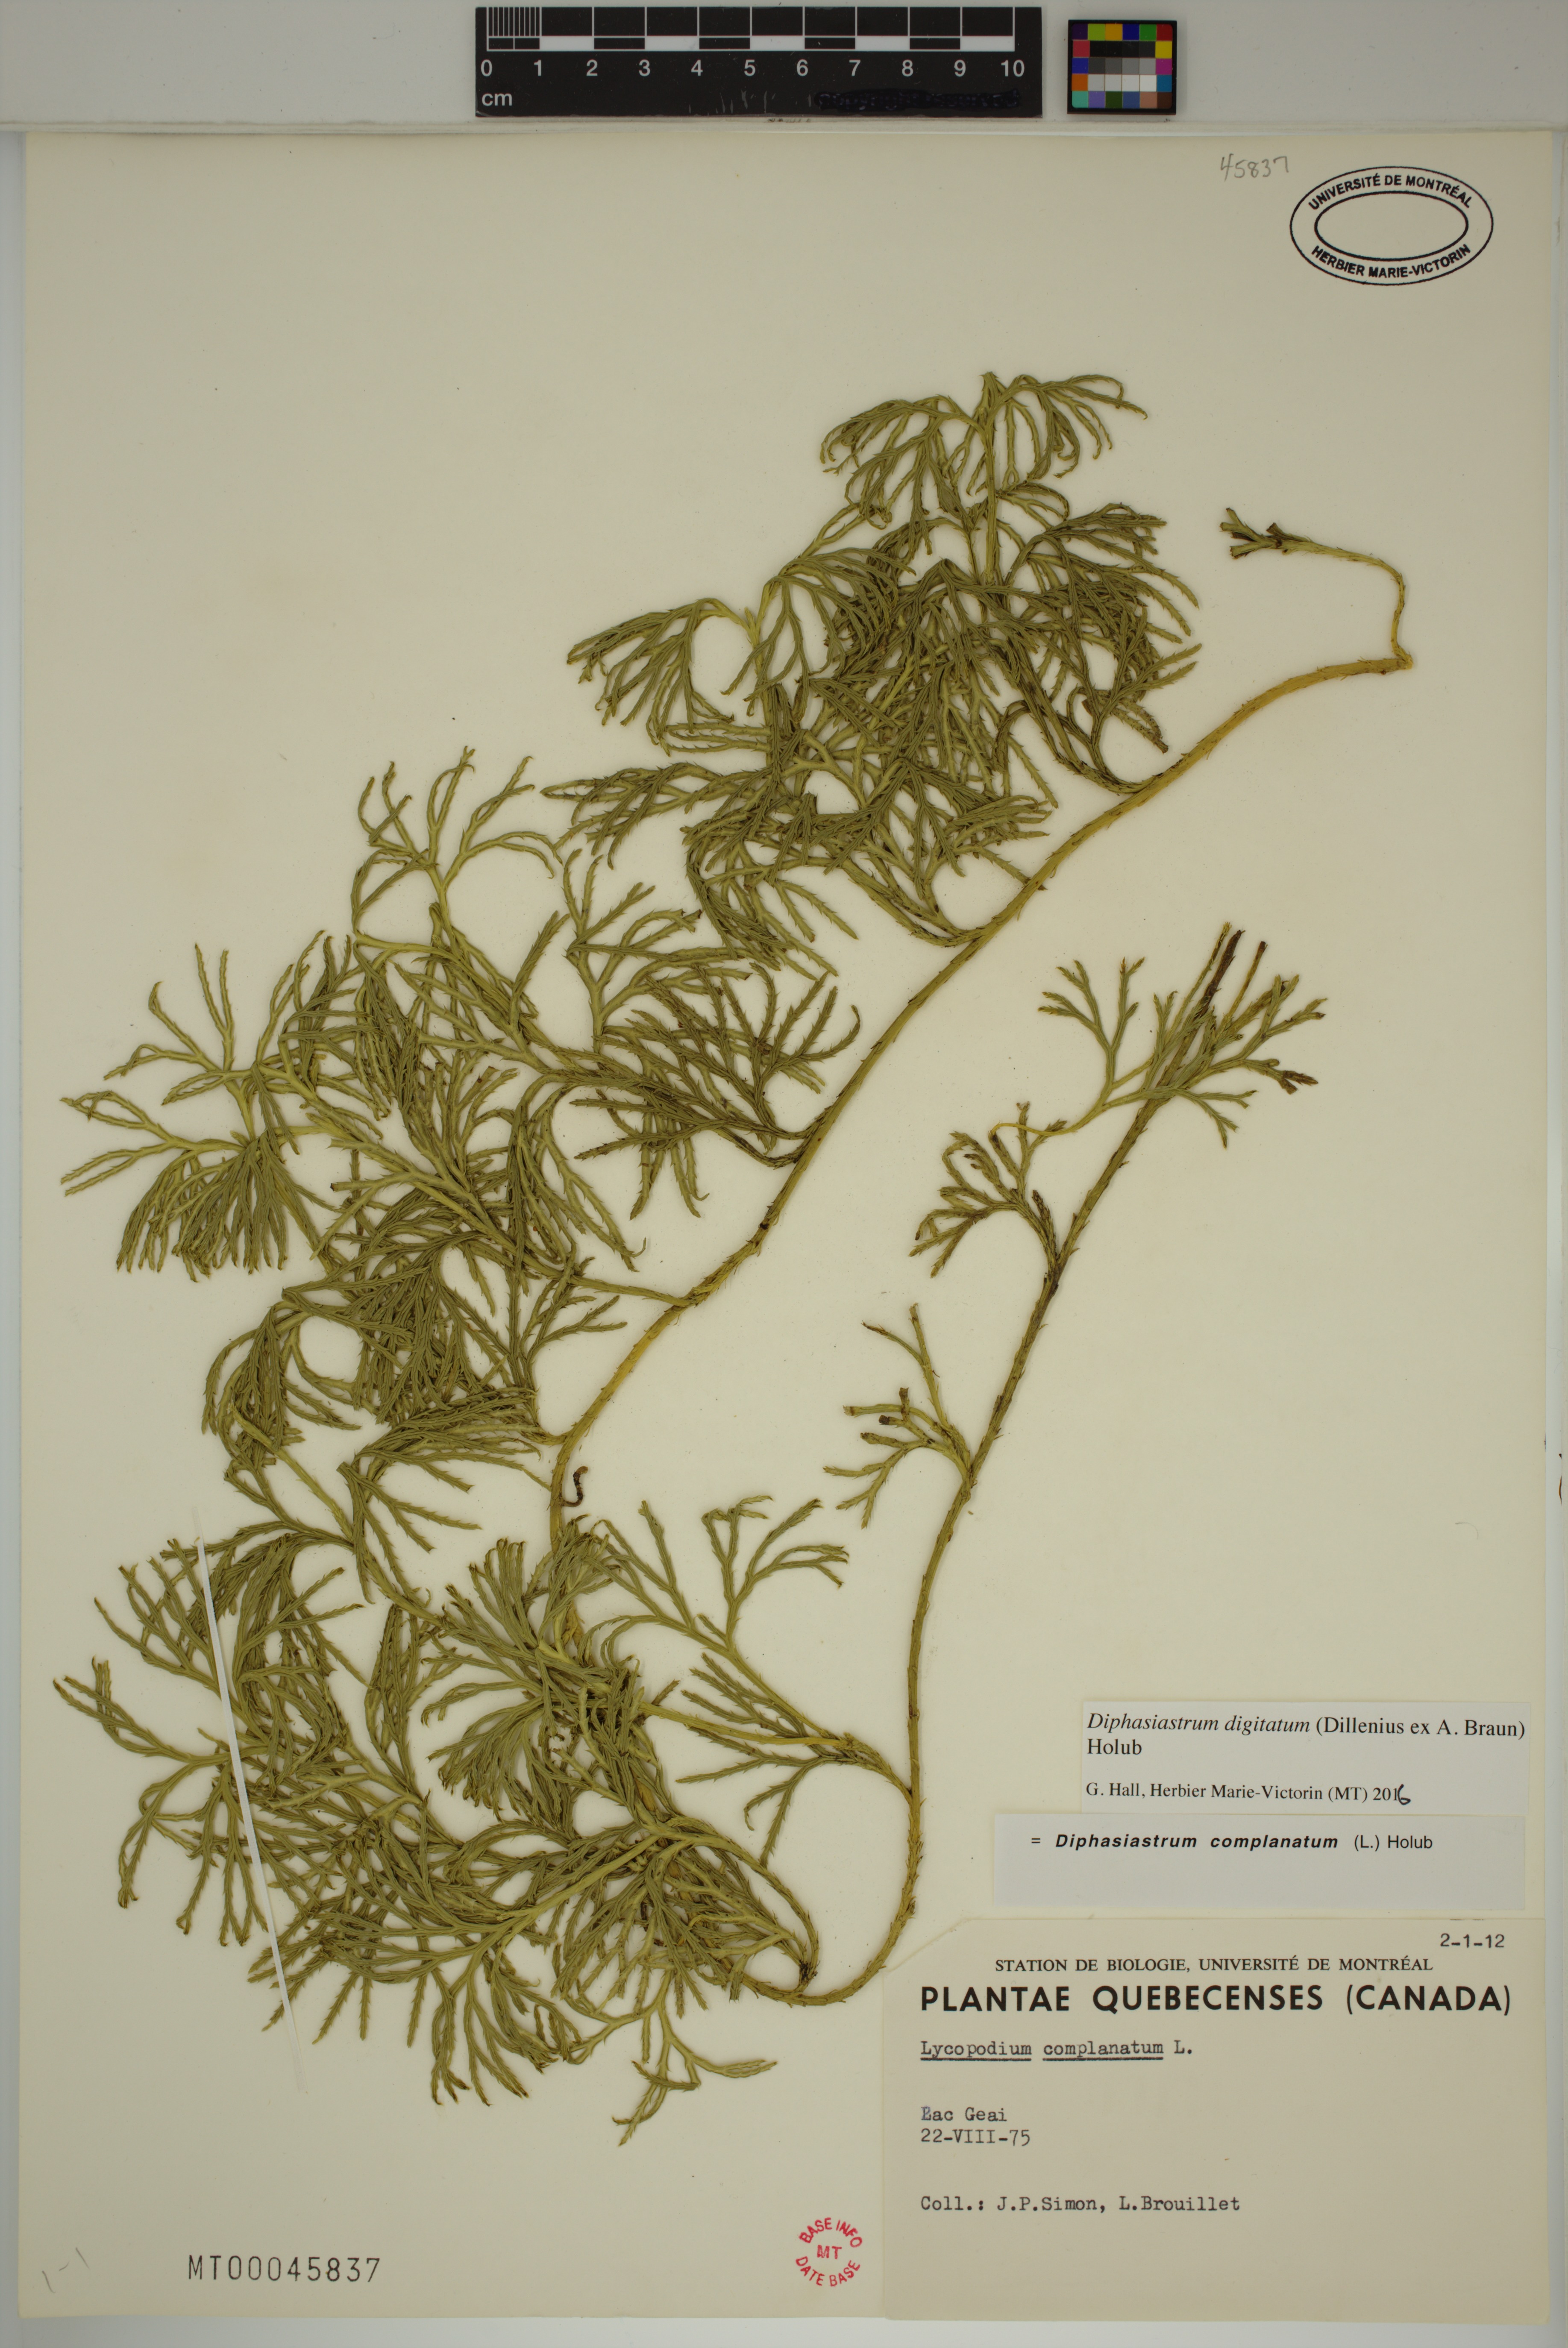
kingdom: Plantae
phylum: Tracheophyta
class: Lycopodiopsida
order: Lycopodiales
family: Lycopodiaceae
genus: Diphasiastrum
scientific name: Diphasiastrum digitatum
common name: Southern running-pine
